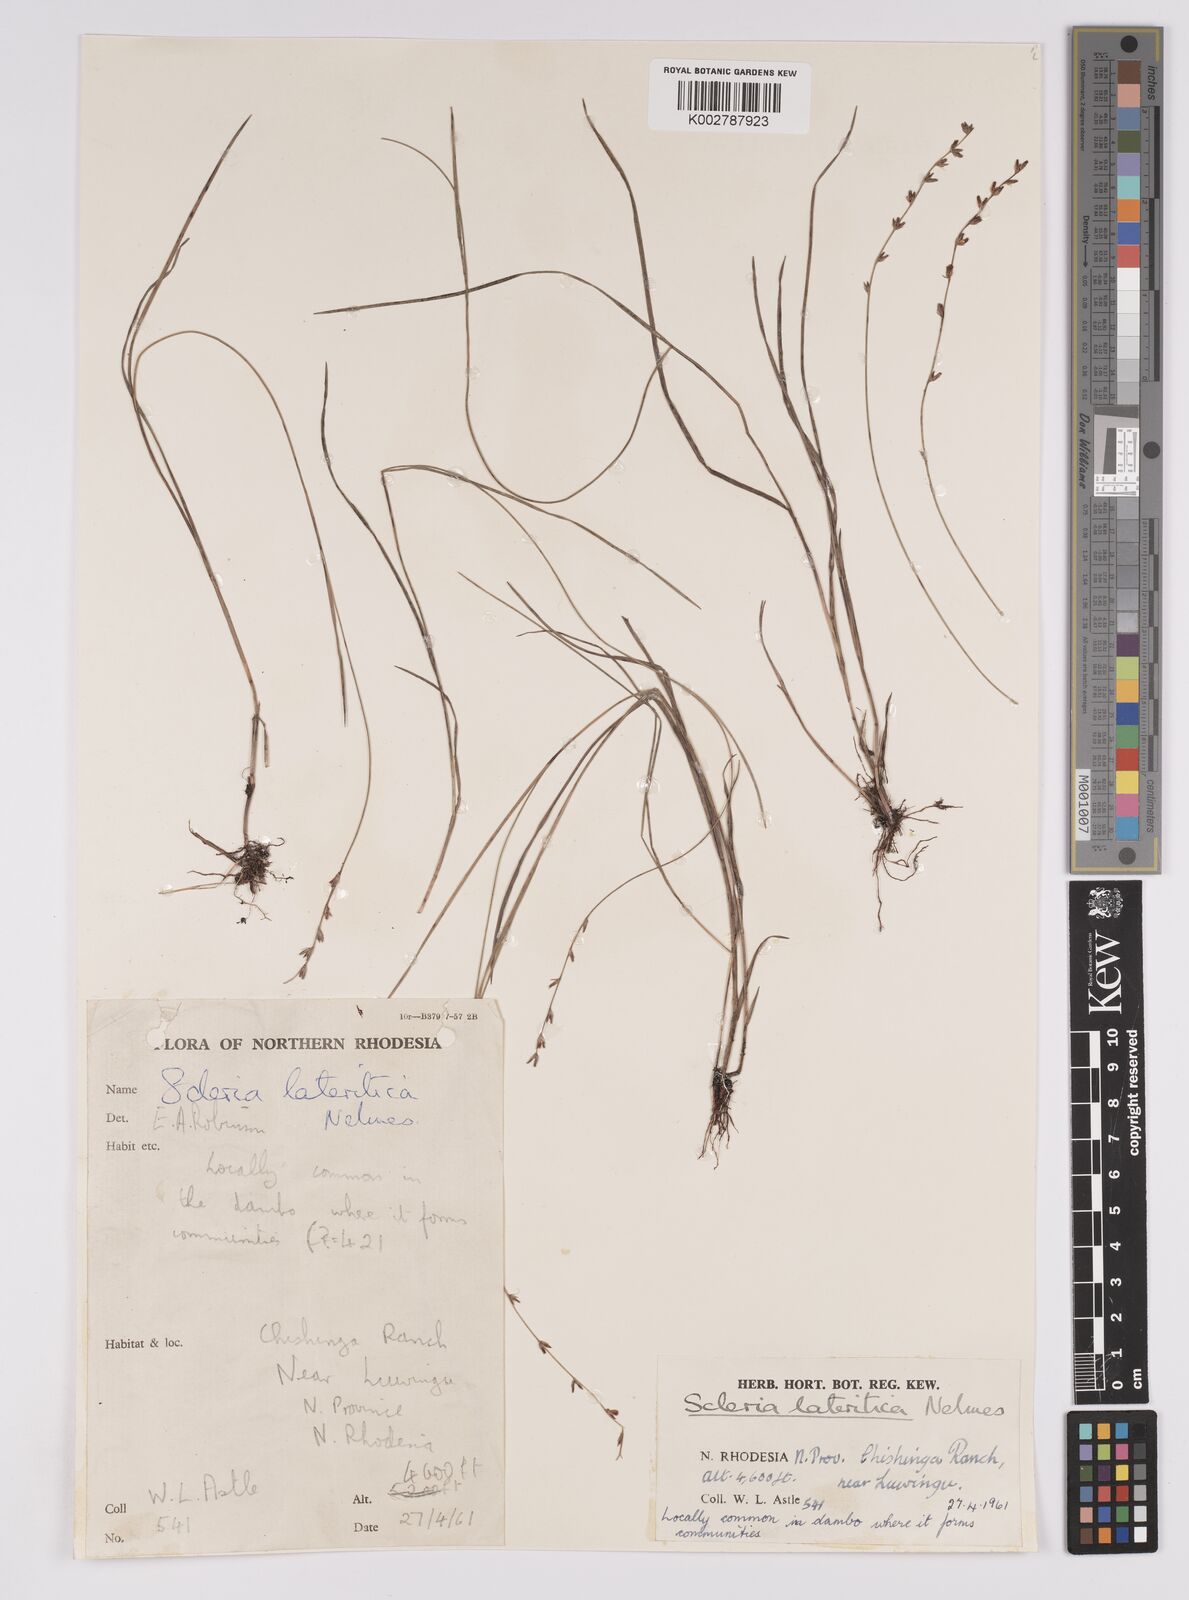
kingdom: Plantae
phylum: Tracheophyta
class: Liliopsida
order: Poales
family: Cyperaceae
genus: Scleria
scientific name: Scleria lateritica
